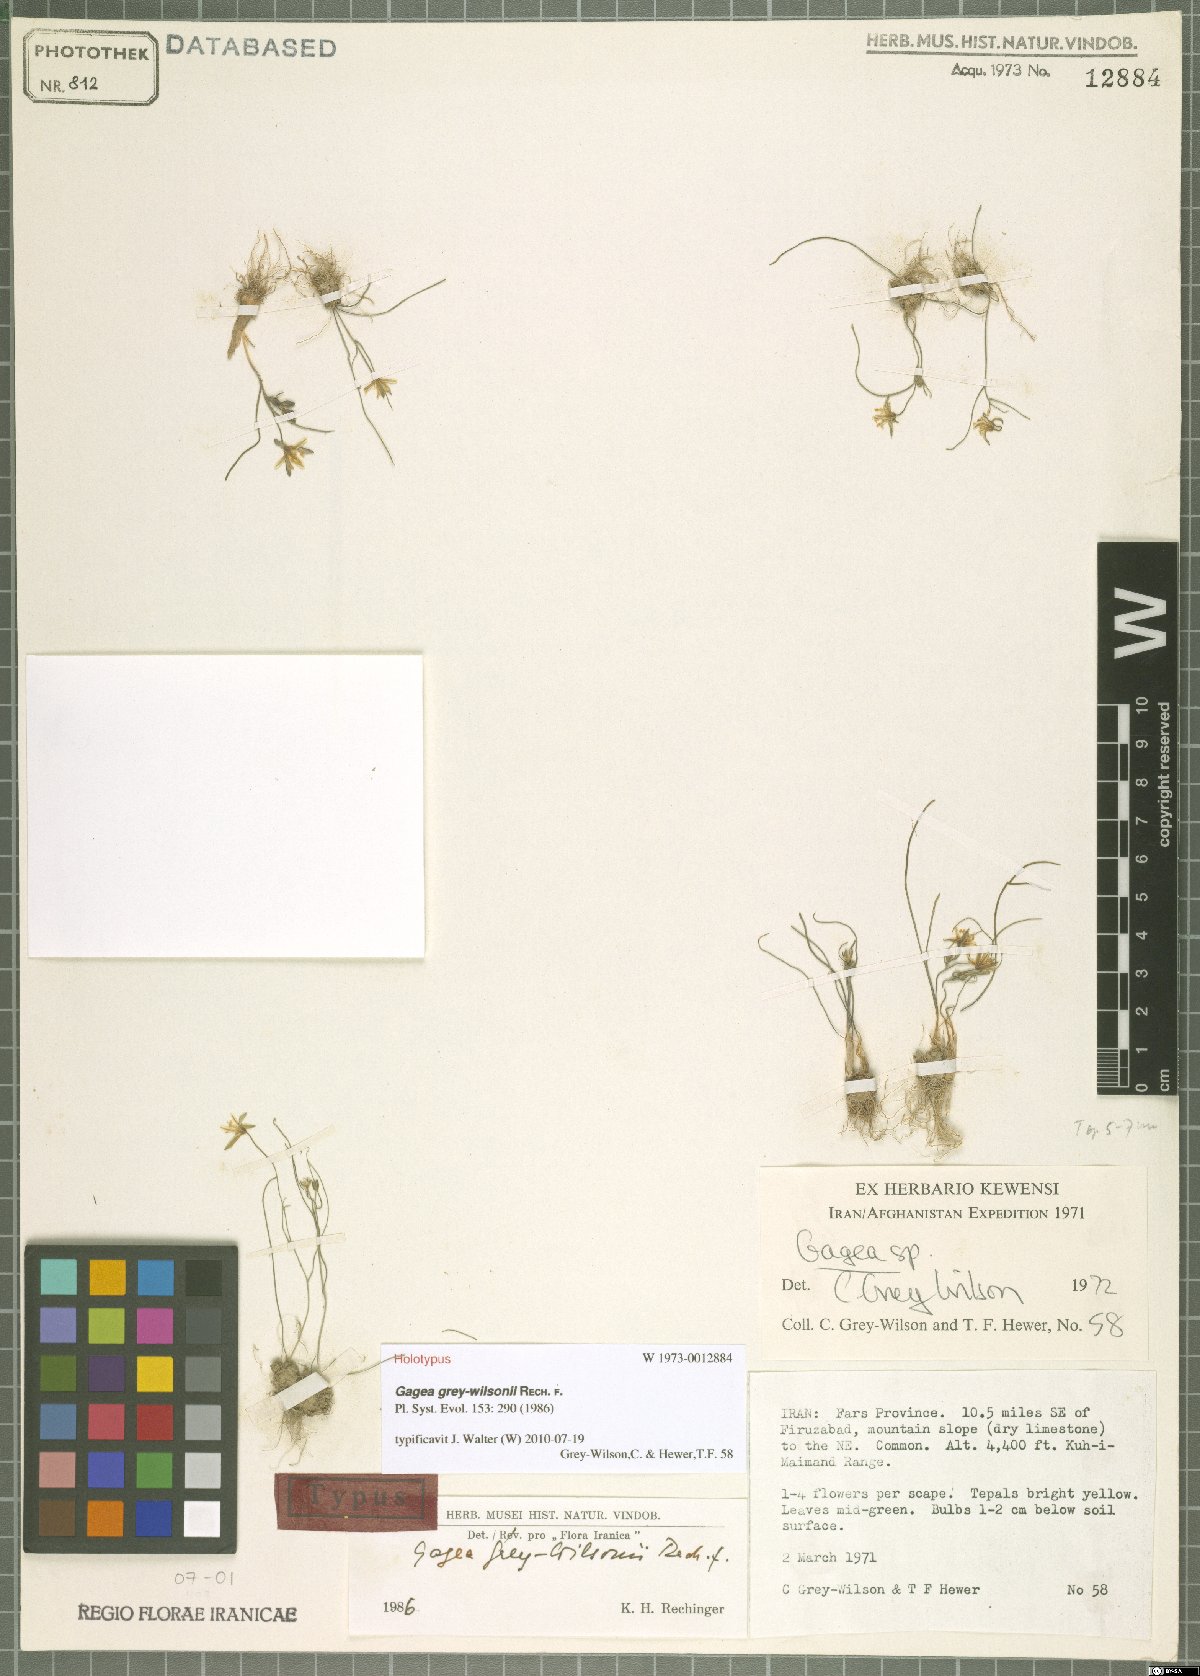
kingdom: Plantae
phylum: Tracheophyta
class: Liliopsida
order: Liliales
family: Liliaceae
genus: Gagea
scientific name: Gagea chlorantha
